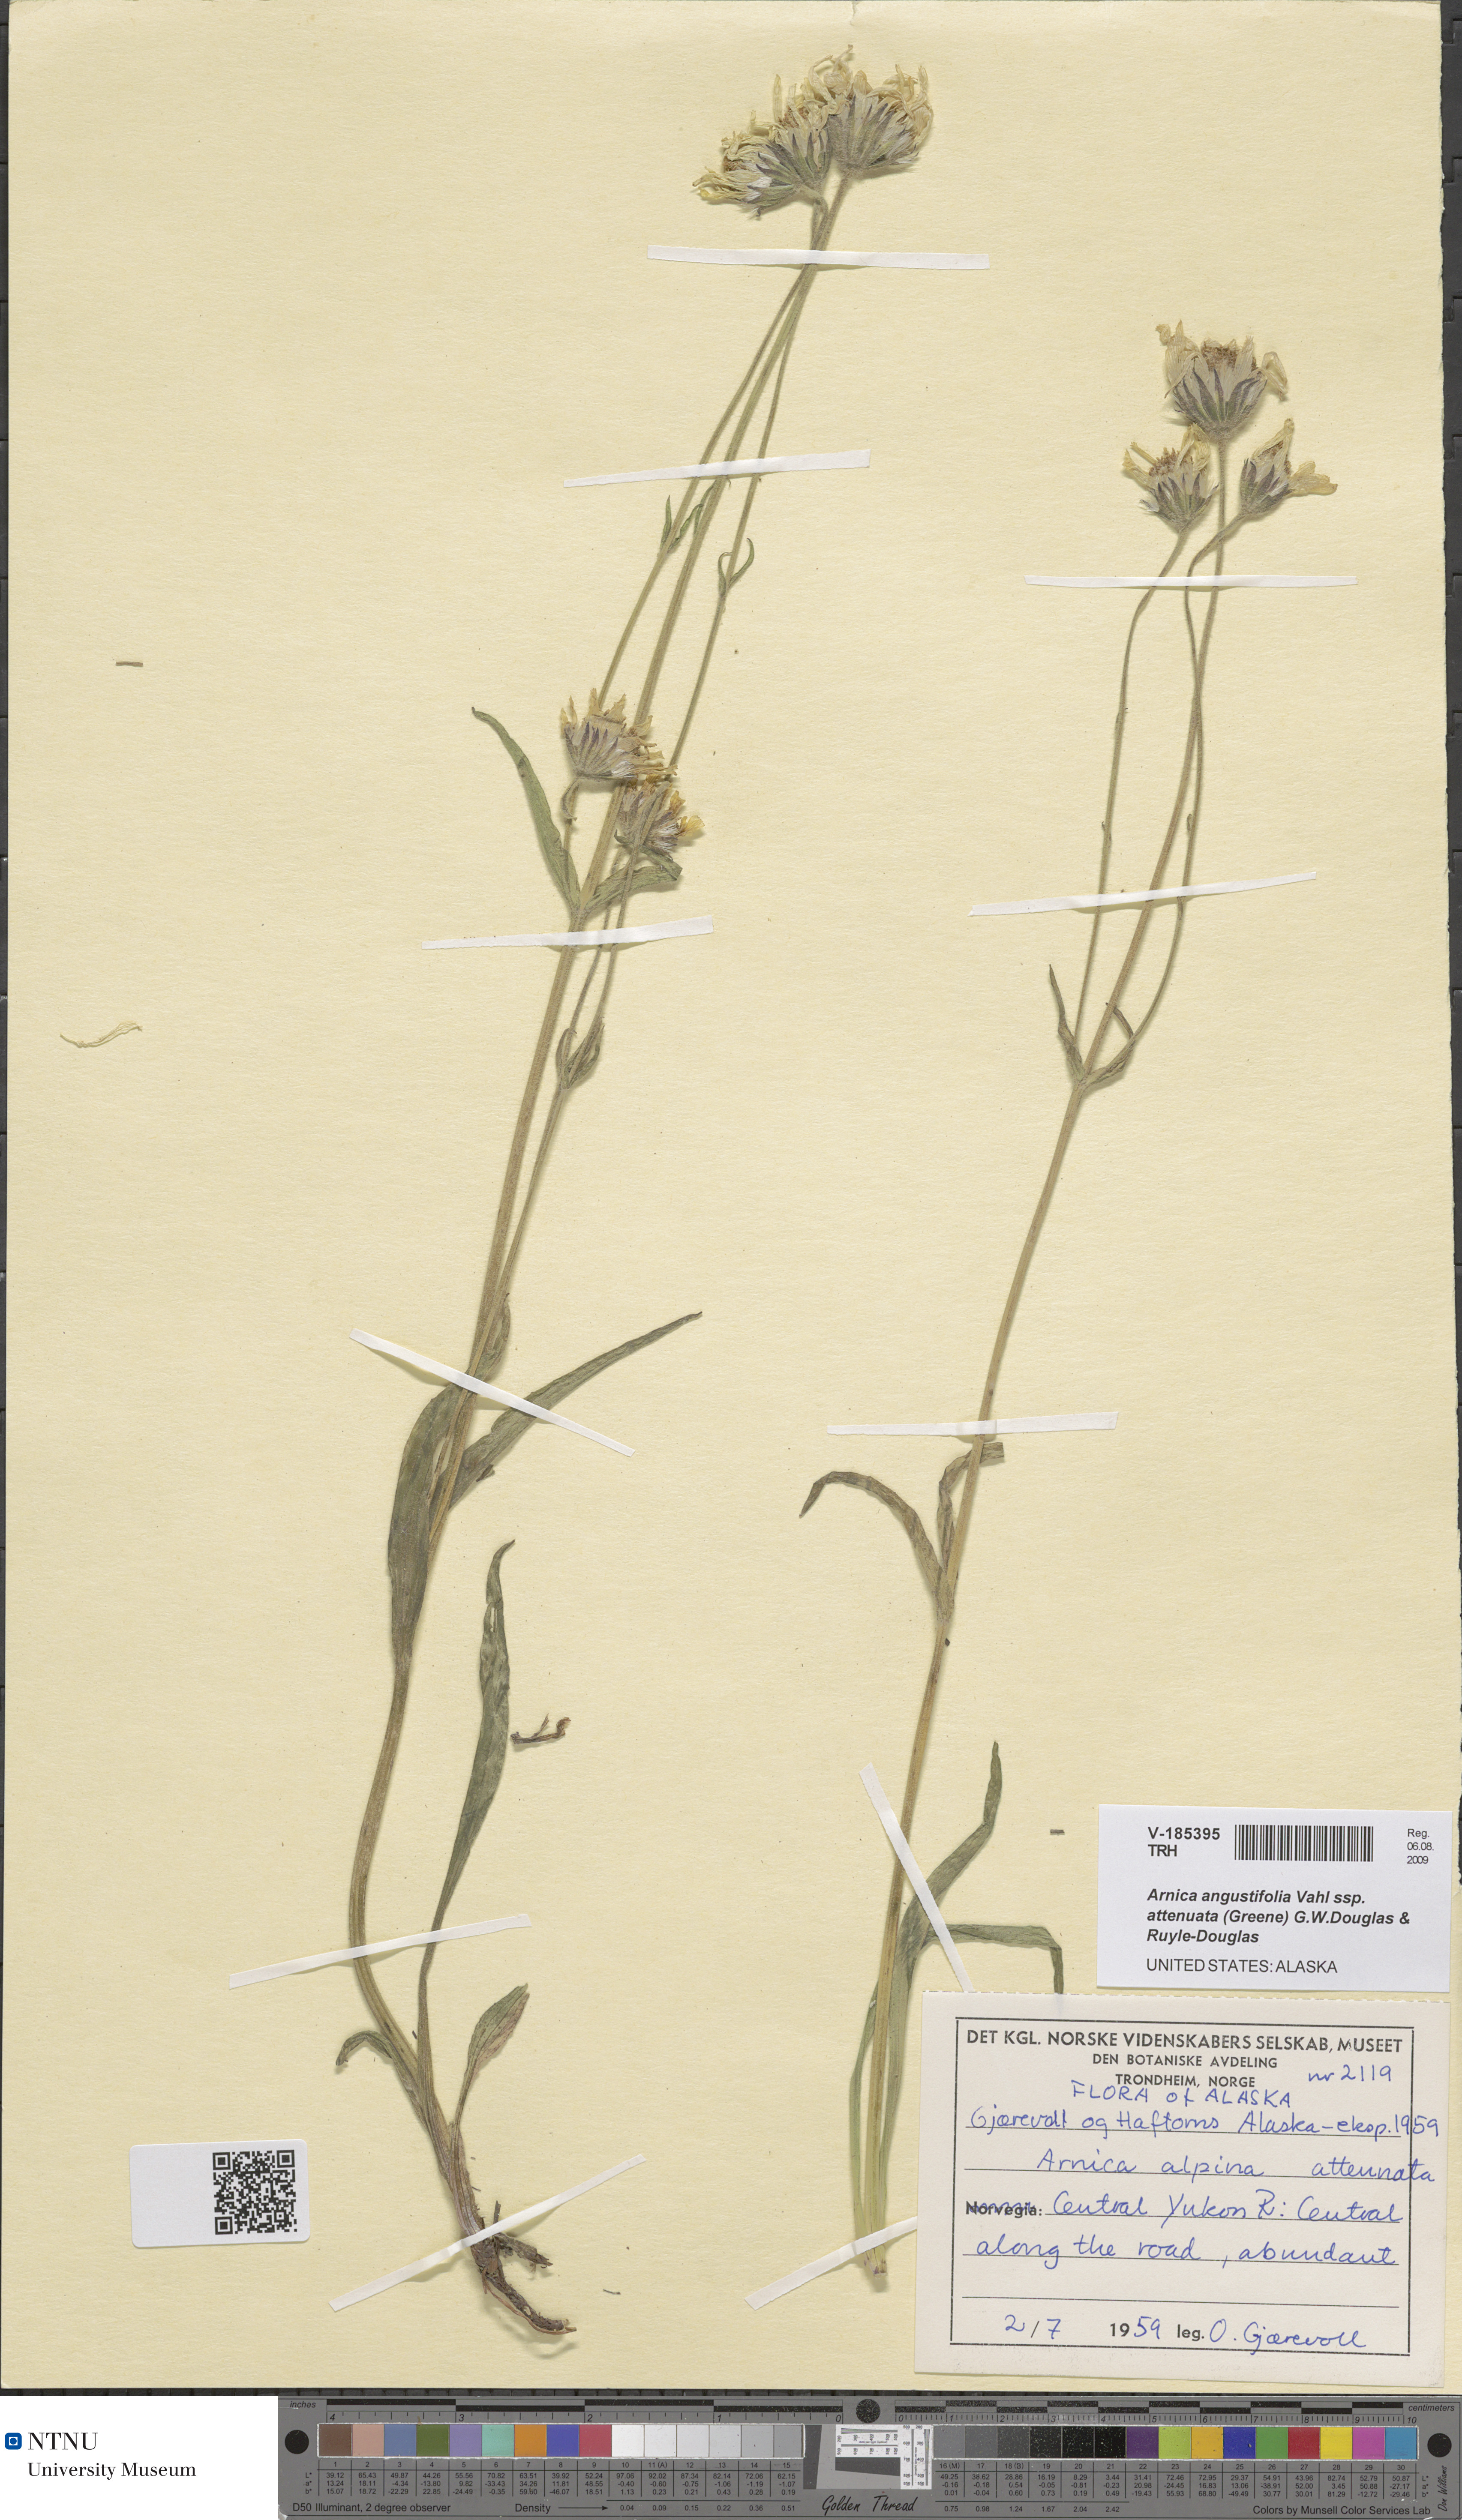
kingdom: Plantae
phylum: Tracheophyta
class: Magnoliopsida
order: Asterales
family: Asteraceae
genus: Arnica
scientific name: Arnica angustifolia
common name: Arctic arnica
